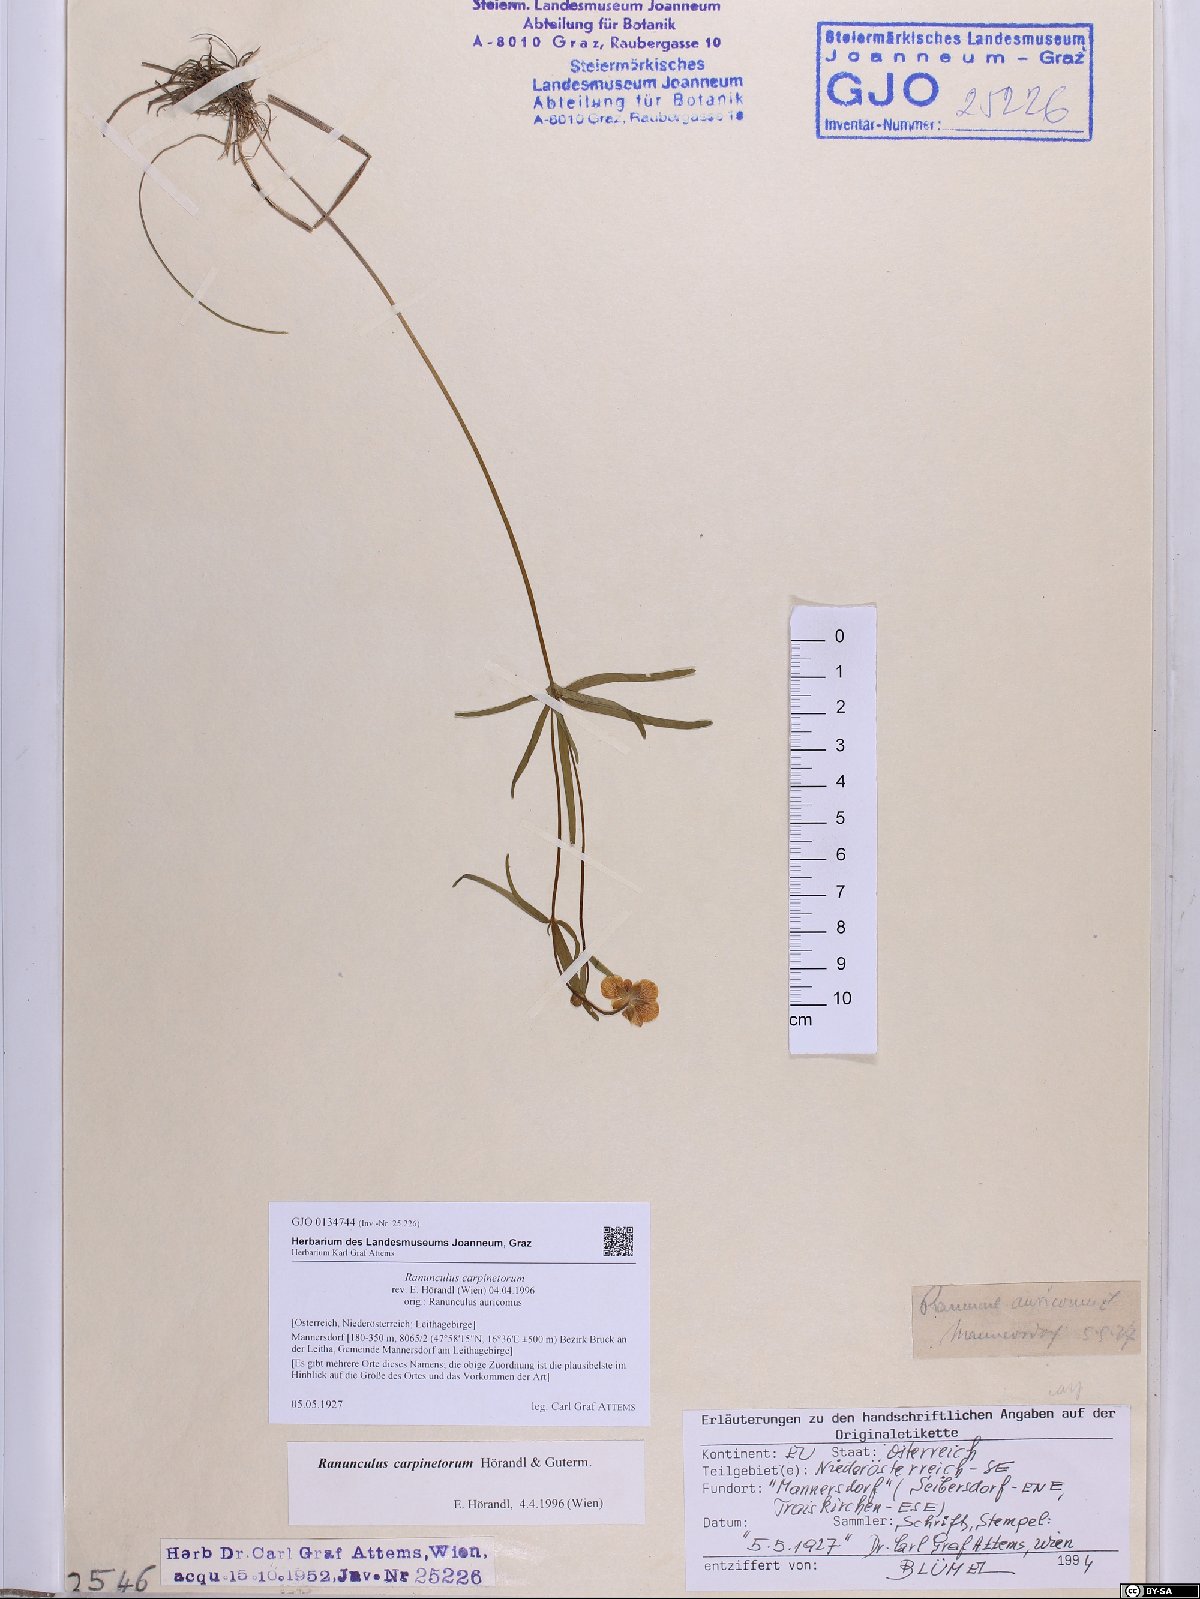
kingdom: Plantae
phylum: Tracheophyta
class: Magnoliopsida
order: Ranunculales
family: Ranunculaceae
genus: Ranunculus
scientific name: Ranunculus carpinetorum
